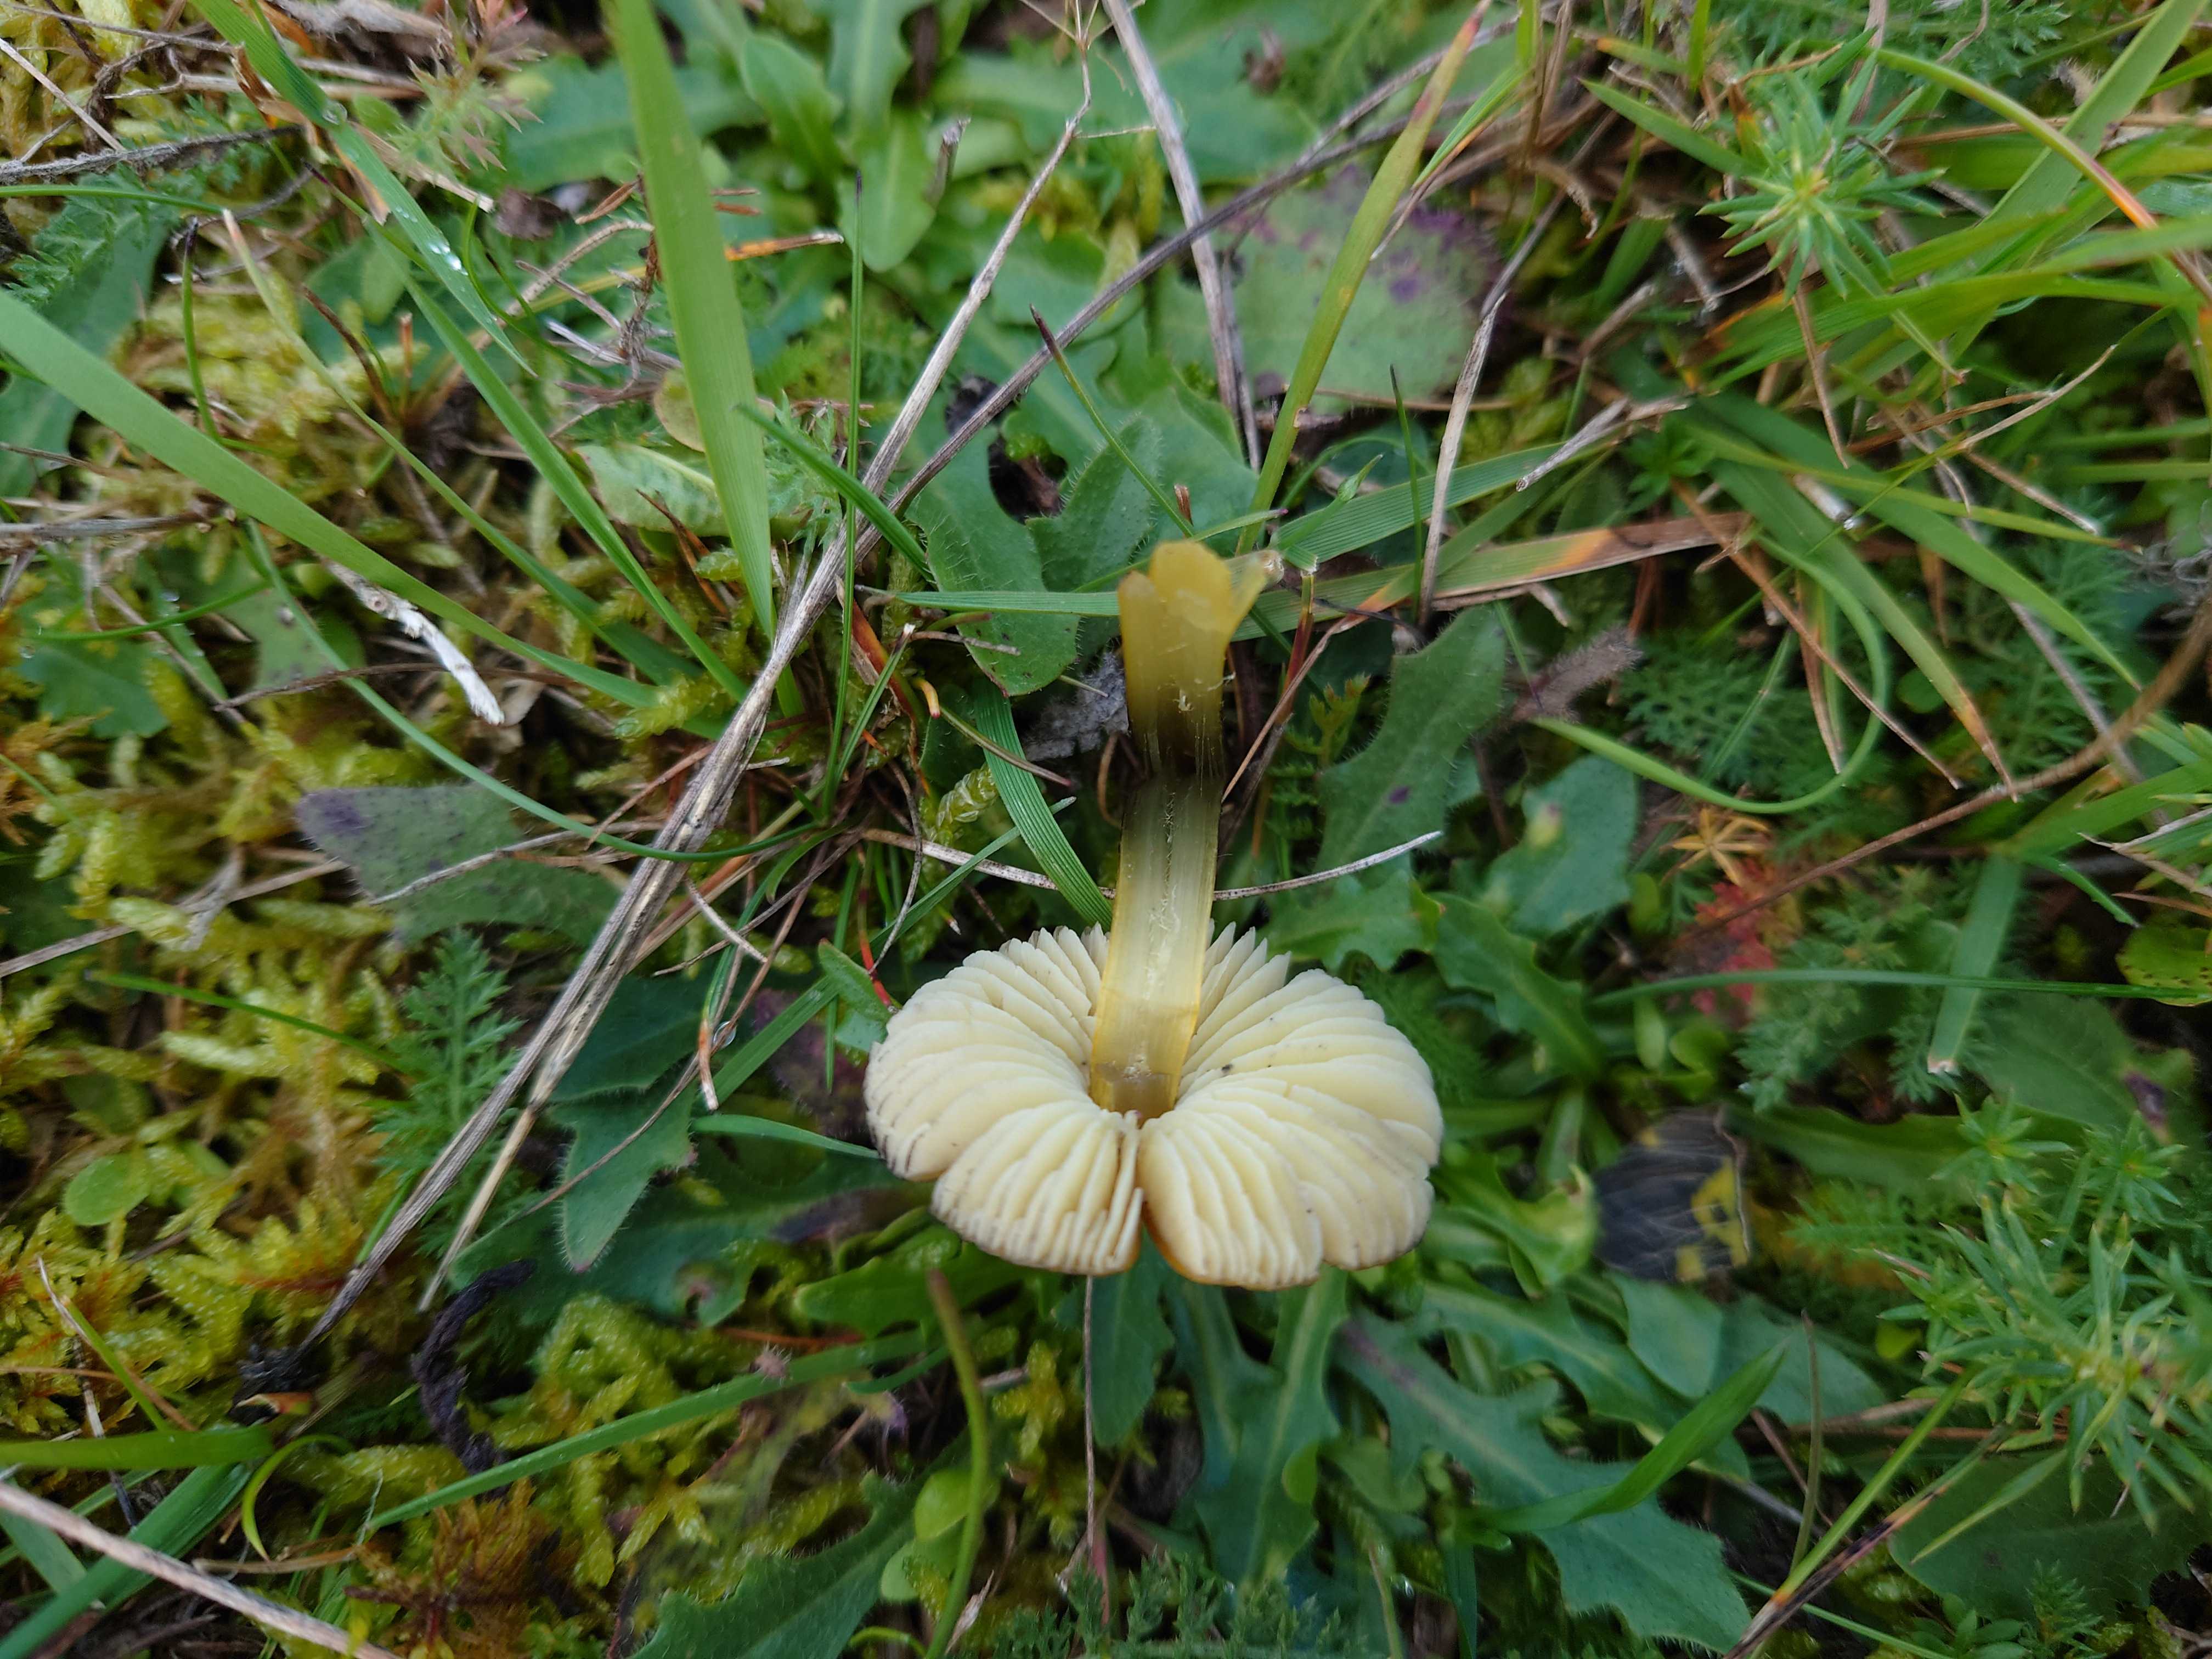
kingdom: Fungi
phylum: Basidiomycota
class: Agaricomycetes
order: Agaricales
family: Hygrophoraceae
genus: Hygrocybe
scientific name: Hygrocybe conica
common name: kegle-vokshat
